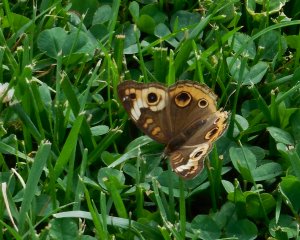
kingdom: Animalia
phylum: Arthropoda
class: Insecta
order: Lepidoptera
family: Nymphalidae
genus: Junonia
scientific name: Junonia coenia
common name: Common Buckeye
